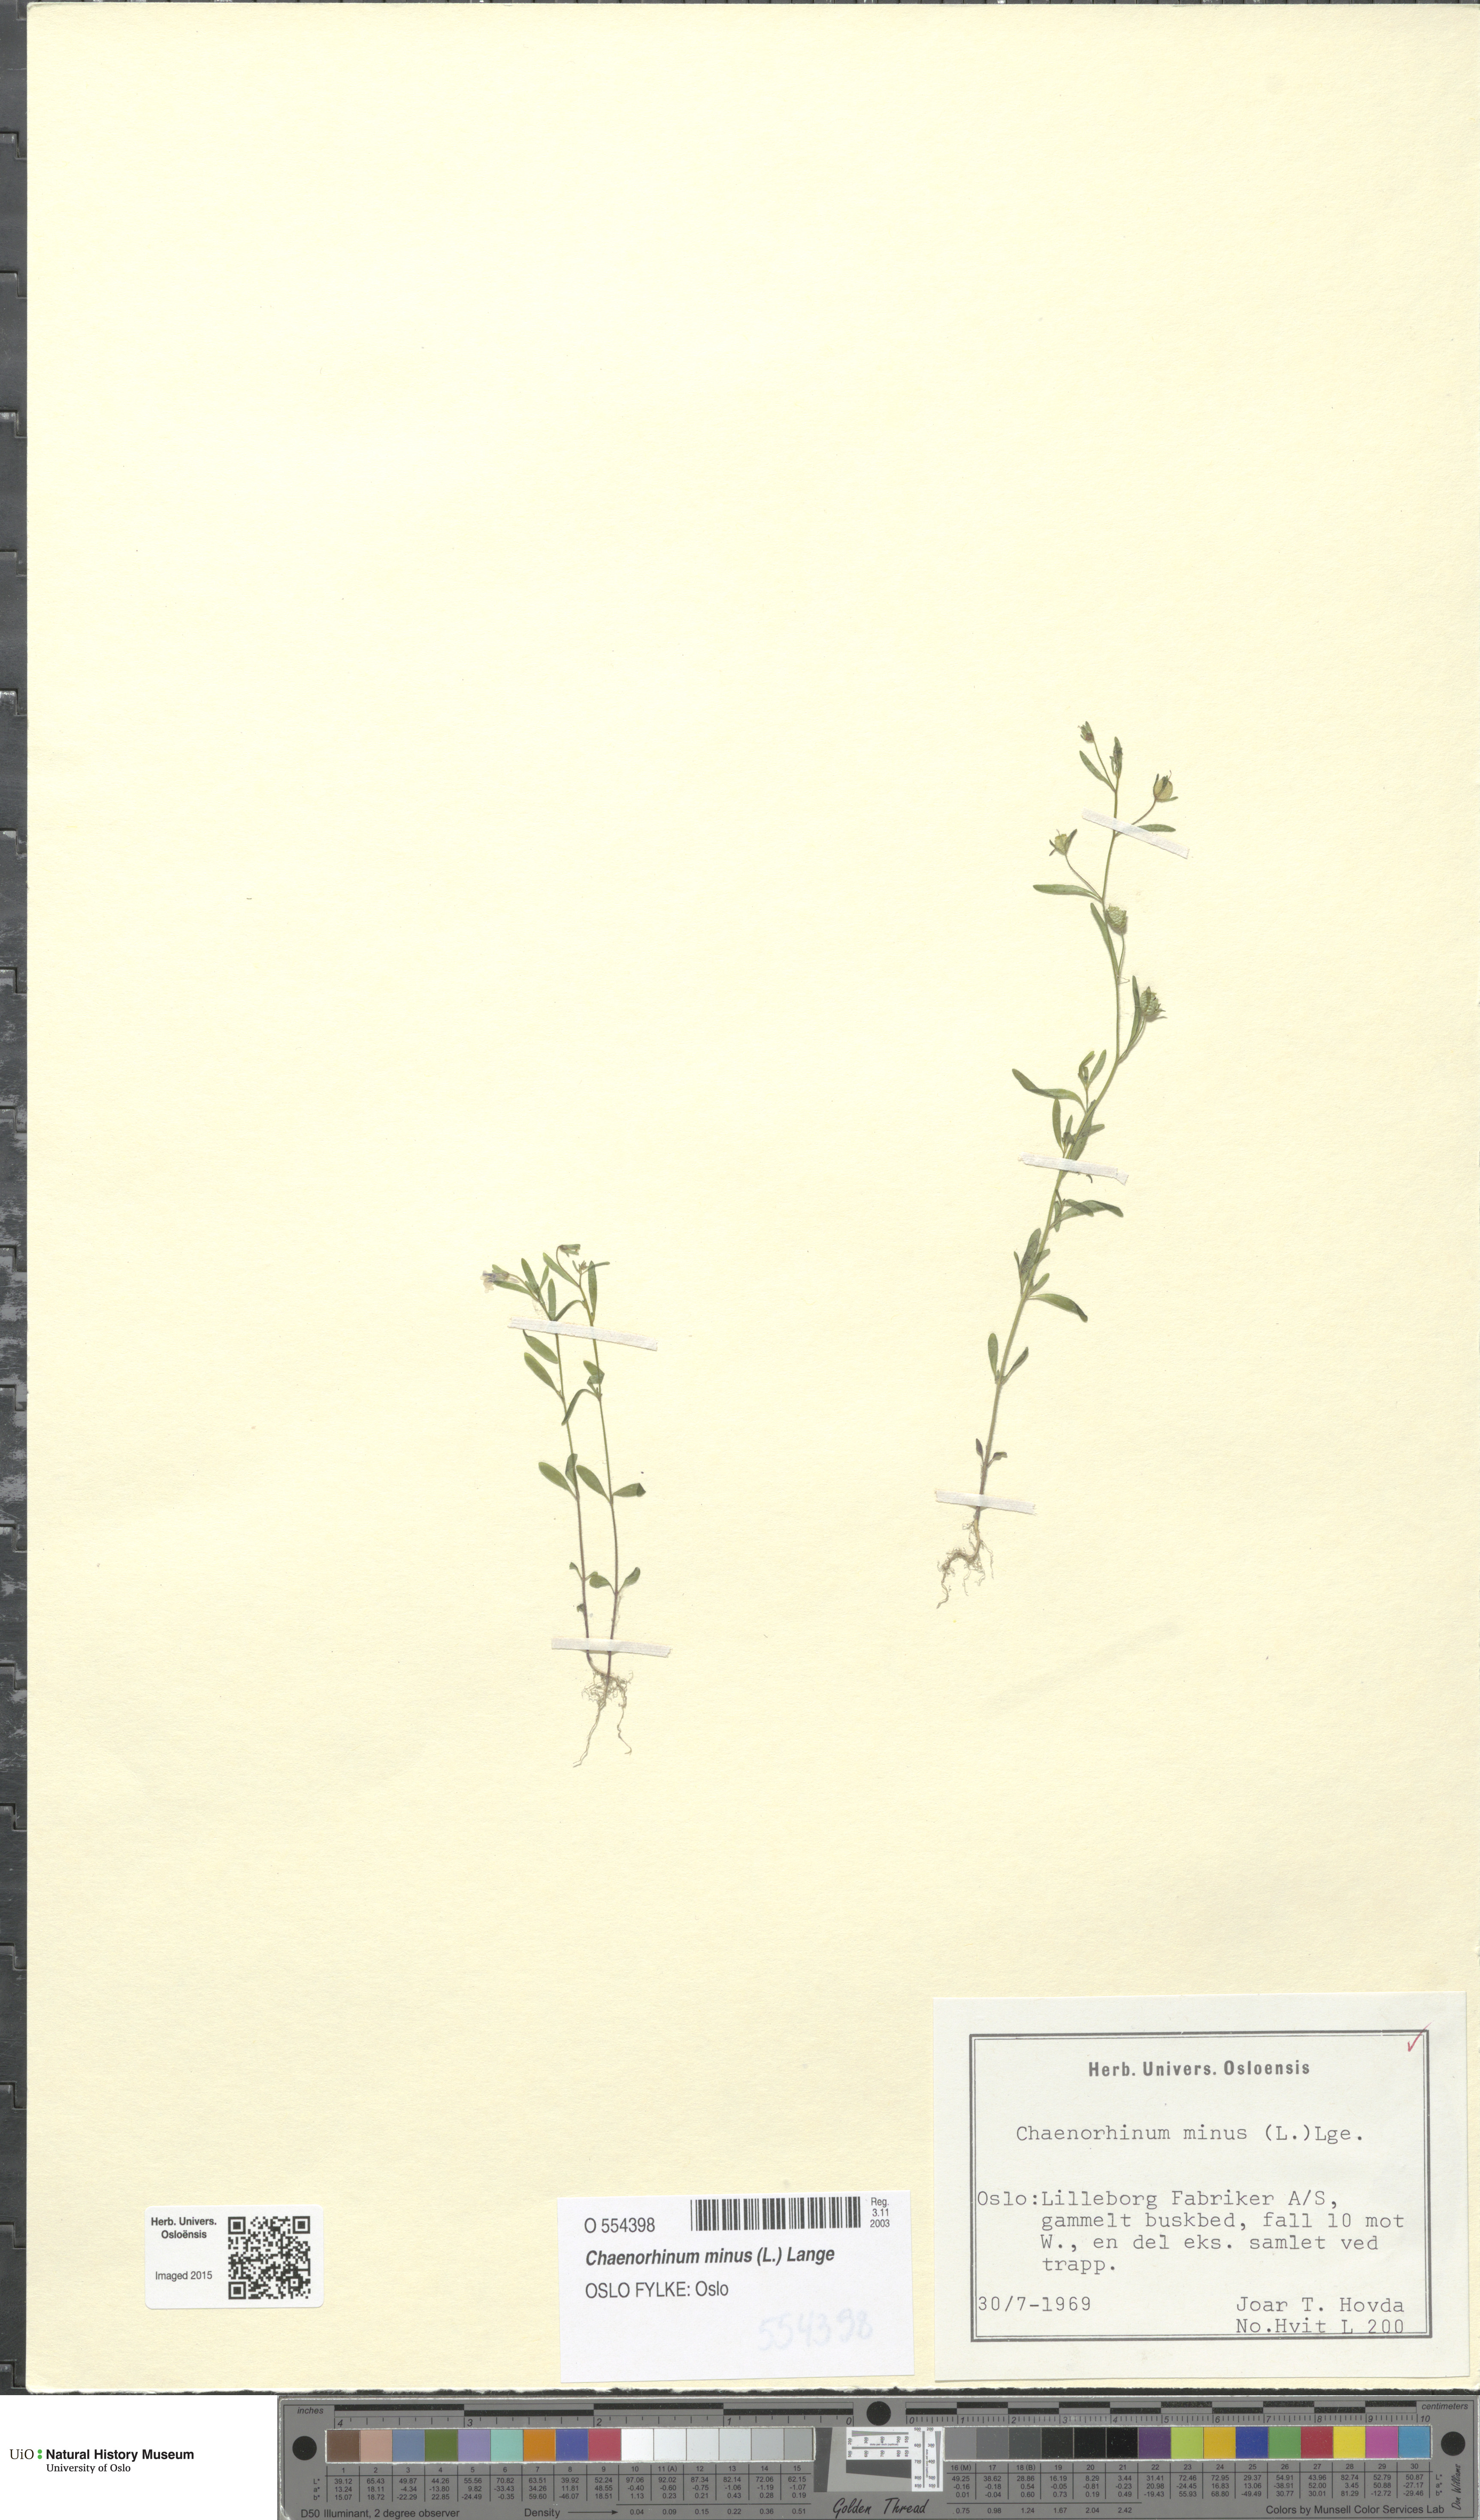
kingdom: Plantae
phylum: Tracheophyta
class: Magnoliopsida
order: Lamiales
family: Plantaginaceae
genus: Chaenorhinum
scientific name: Chaenorhinum minus
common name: Dwarf snapdragon
